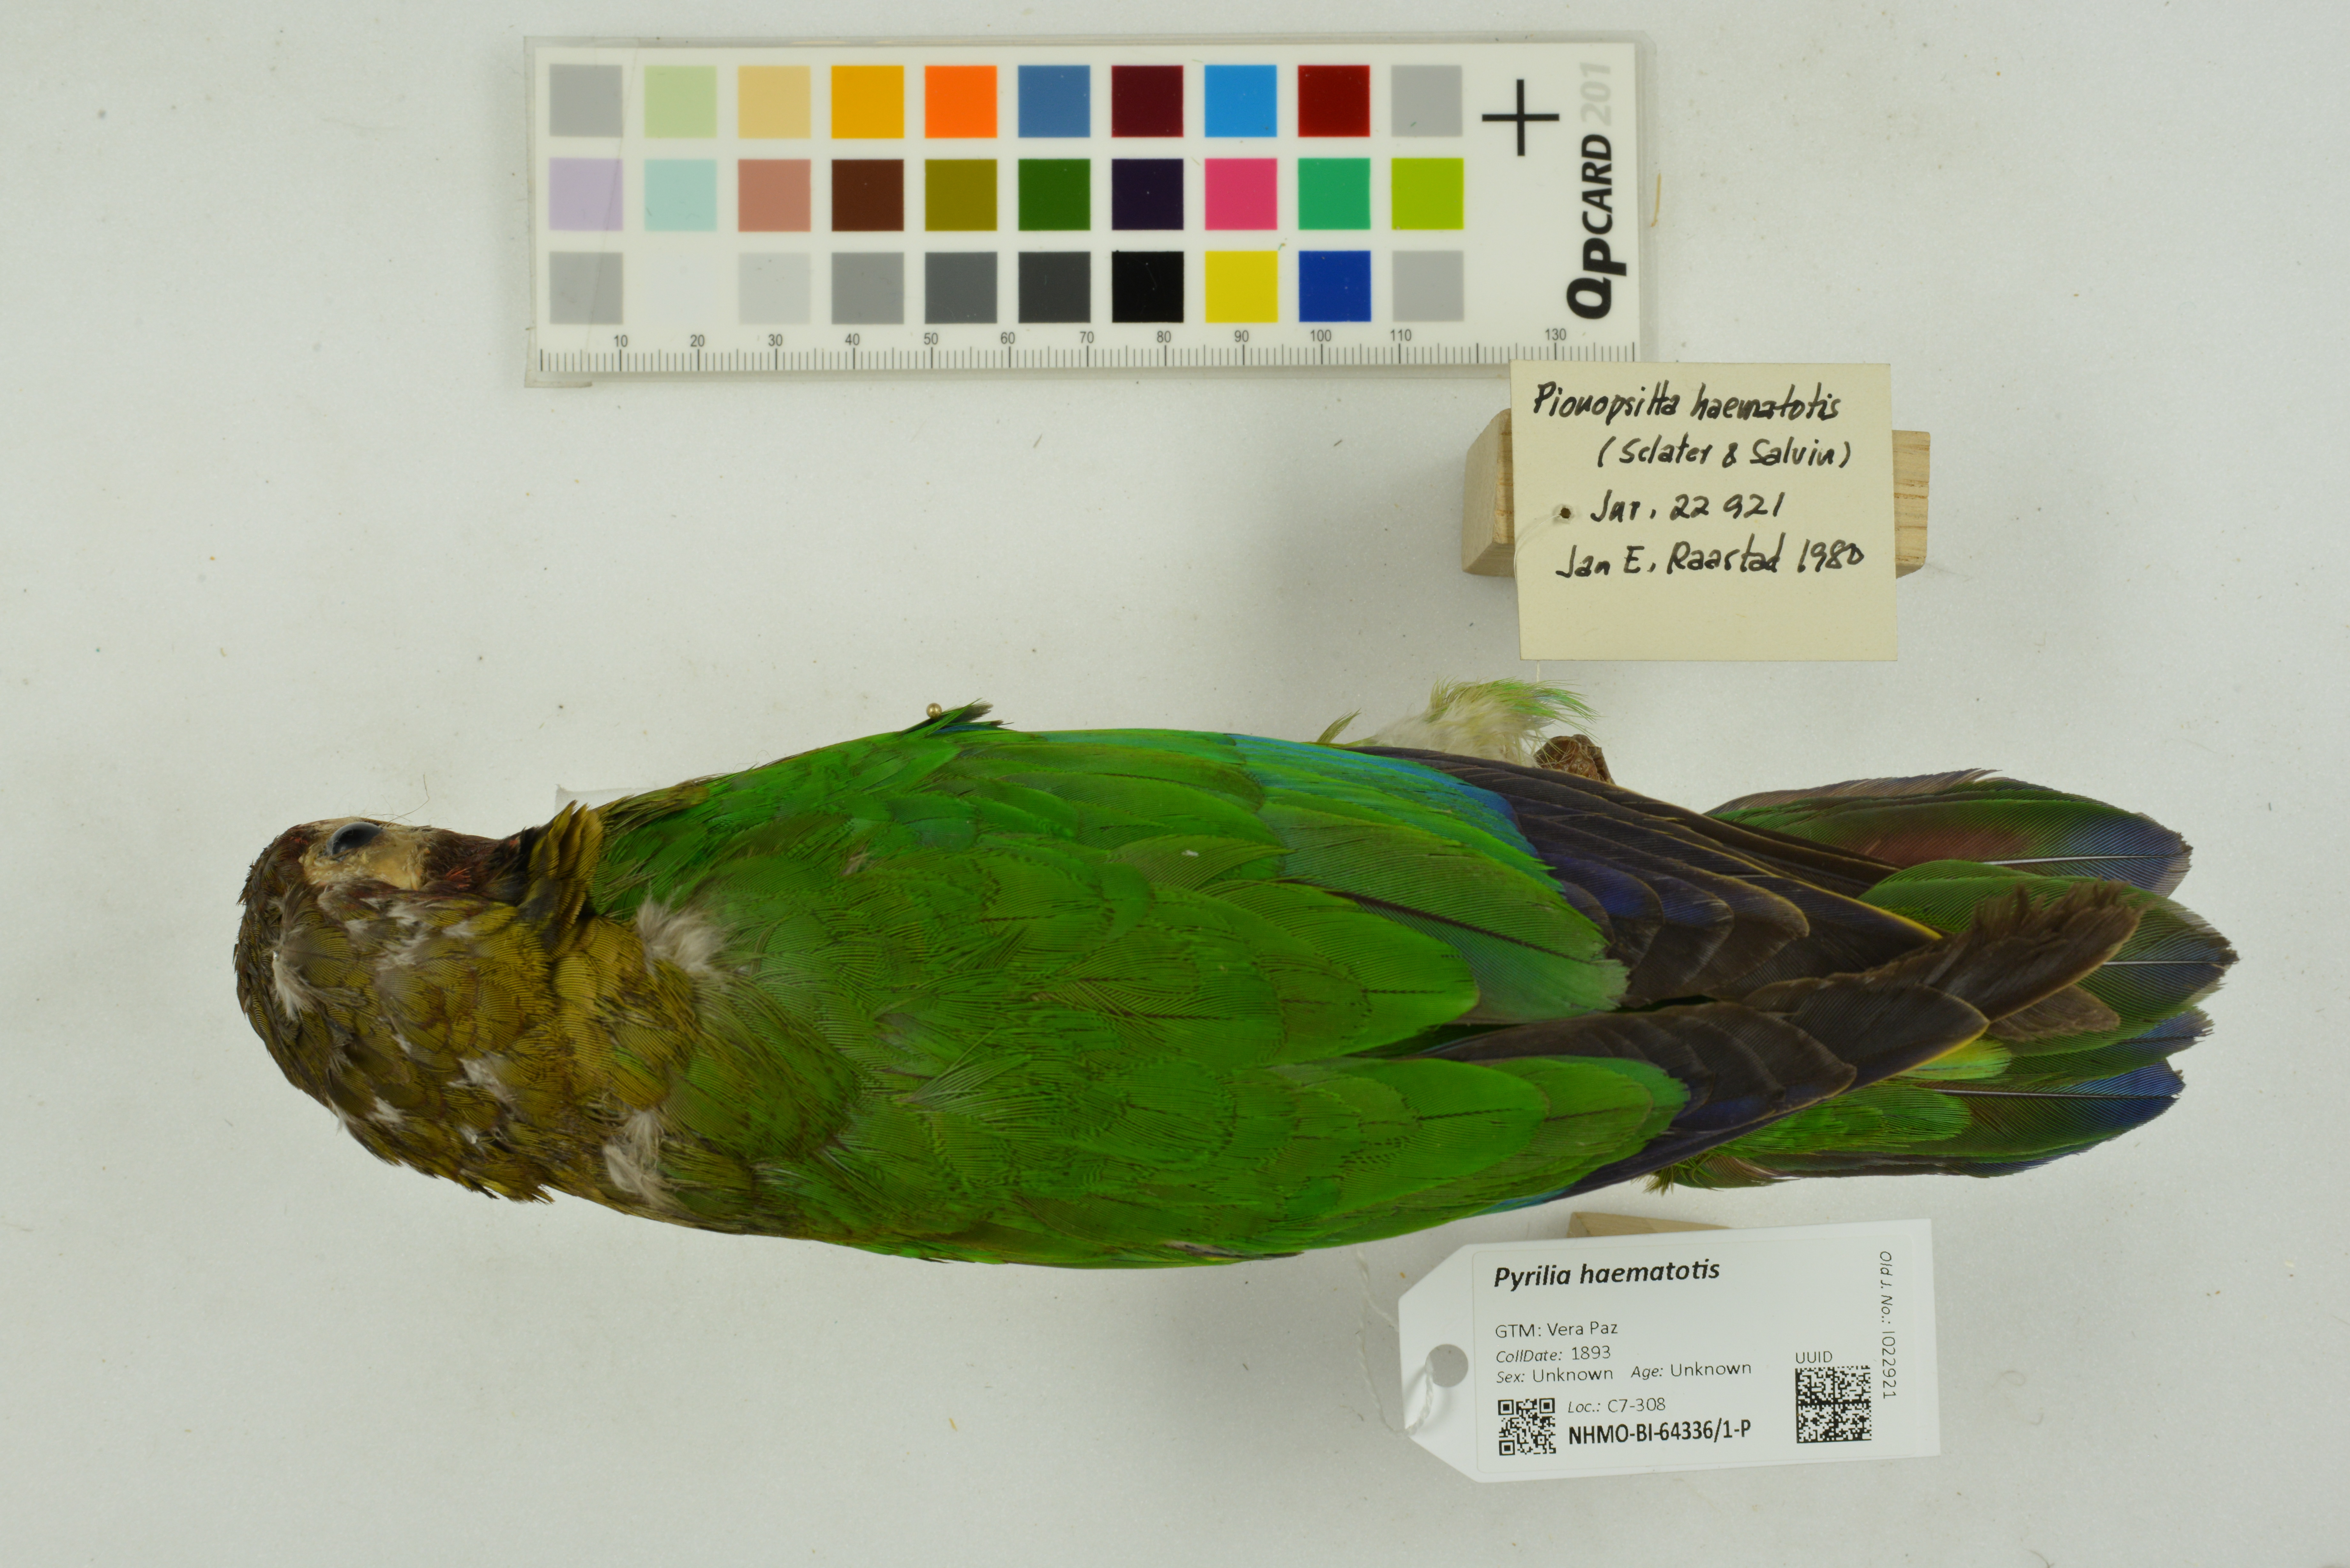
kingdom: Animalia
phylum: Chordata
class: Aves
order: Psittaciformes
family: Psittacidae
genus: Pionopsitta
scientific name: Pionopsitta haematotis
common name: Brown-hooded parrot
